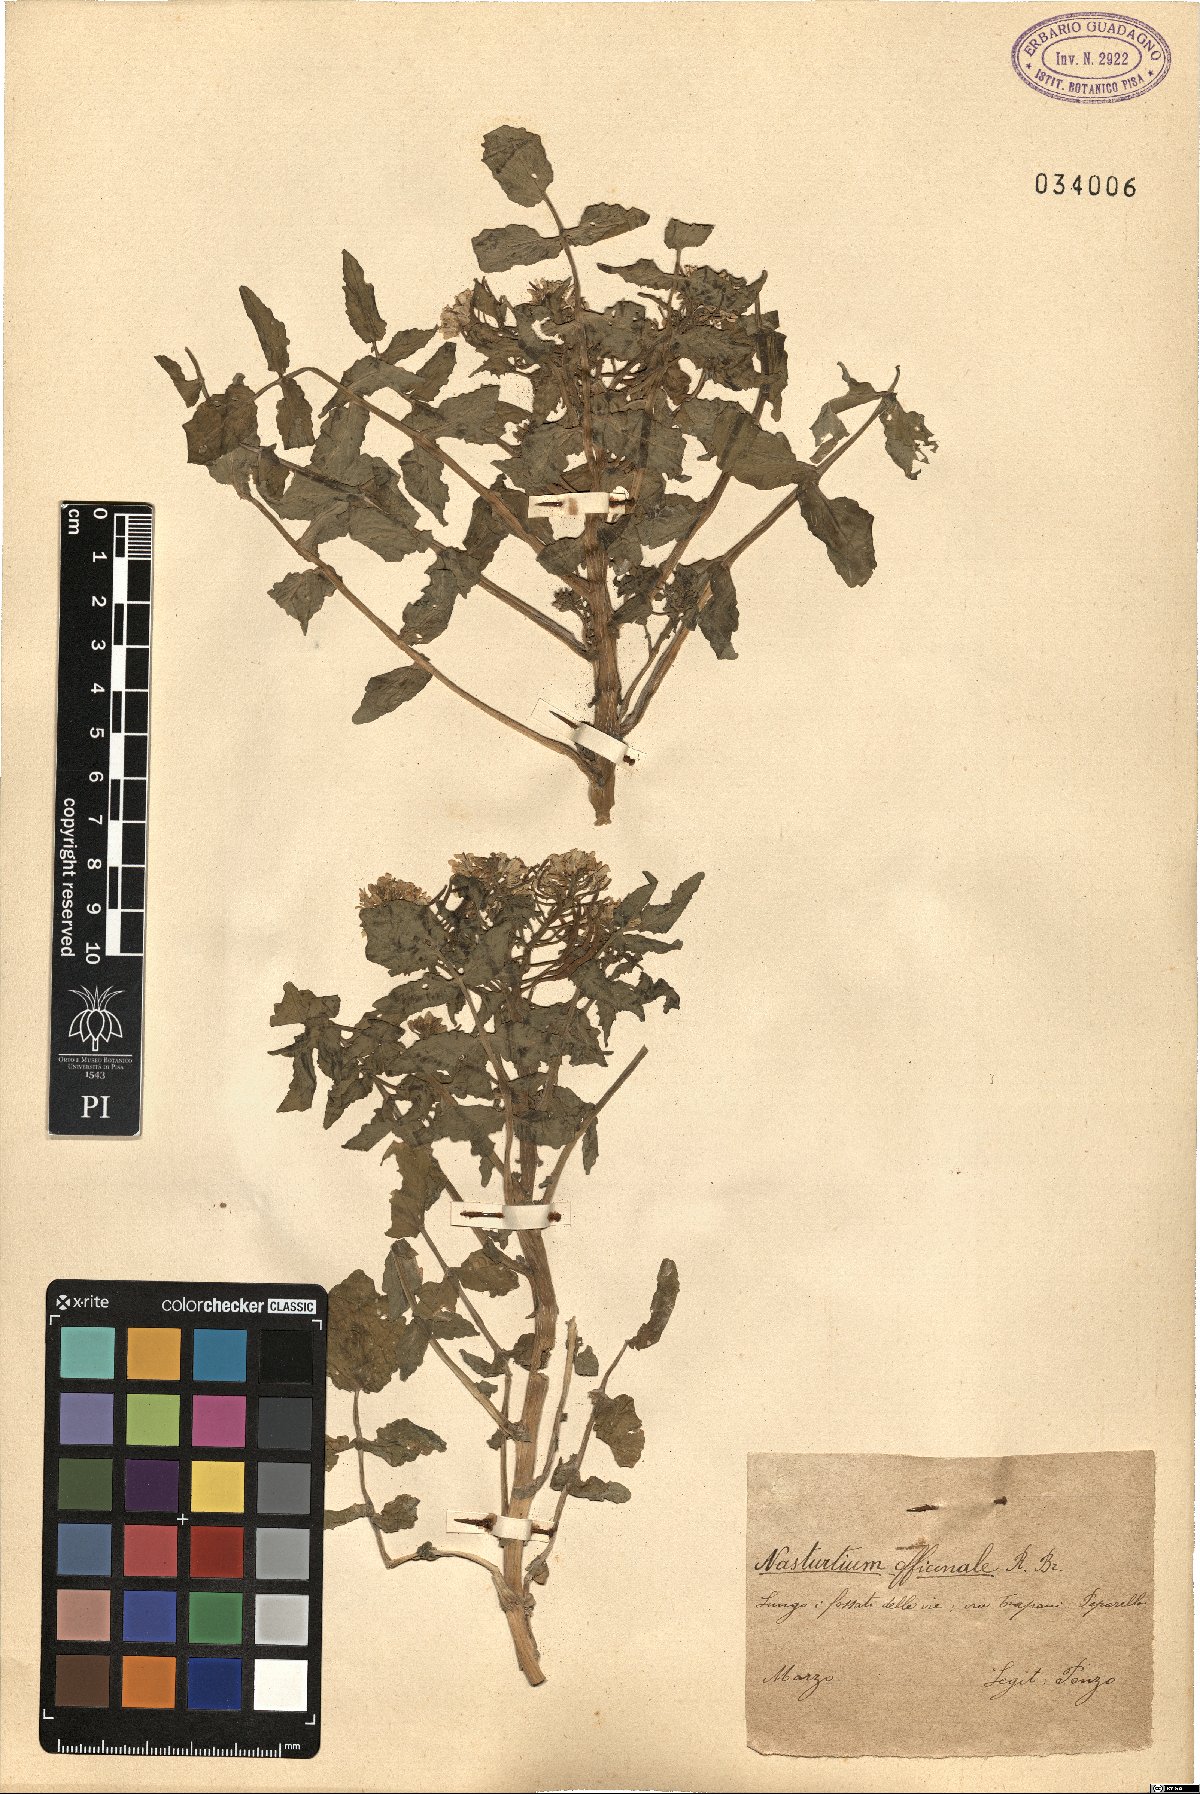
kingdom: Plantae
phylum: Tracheophyta
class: Magnoliopsida
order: Brassicales
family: Brassicaceae
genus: Nasturtium
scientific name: Nasturtium officinale
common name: Watercress
